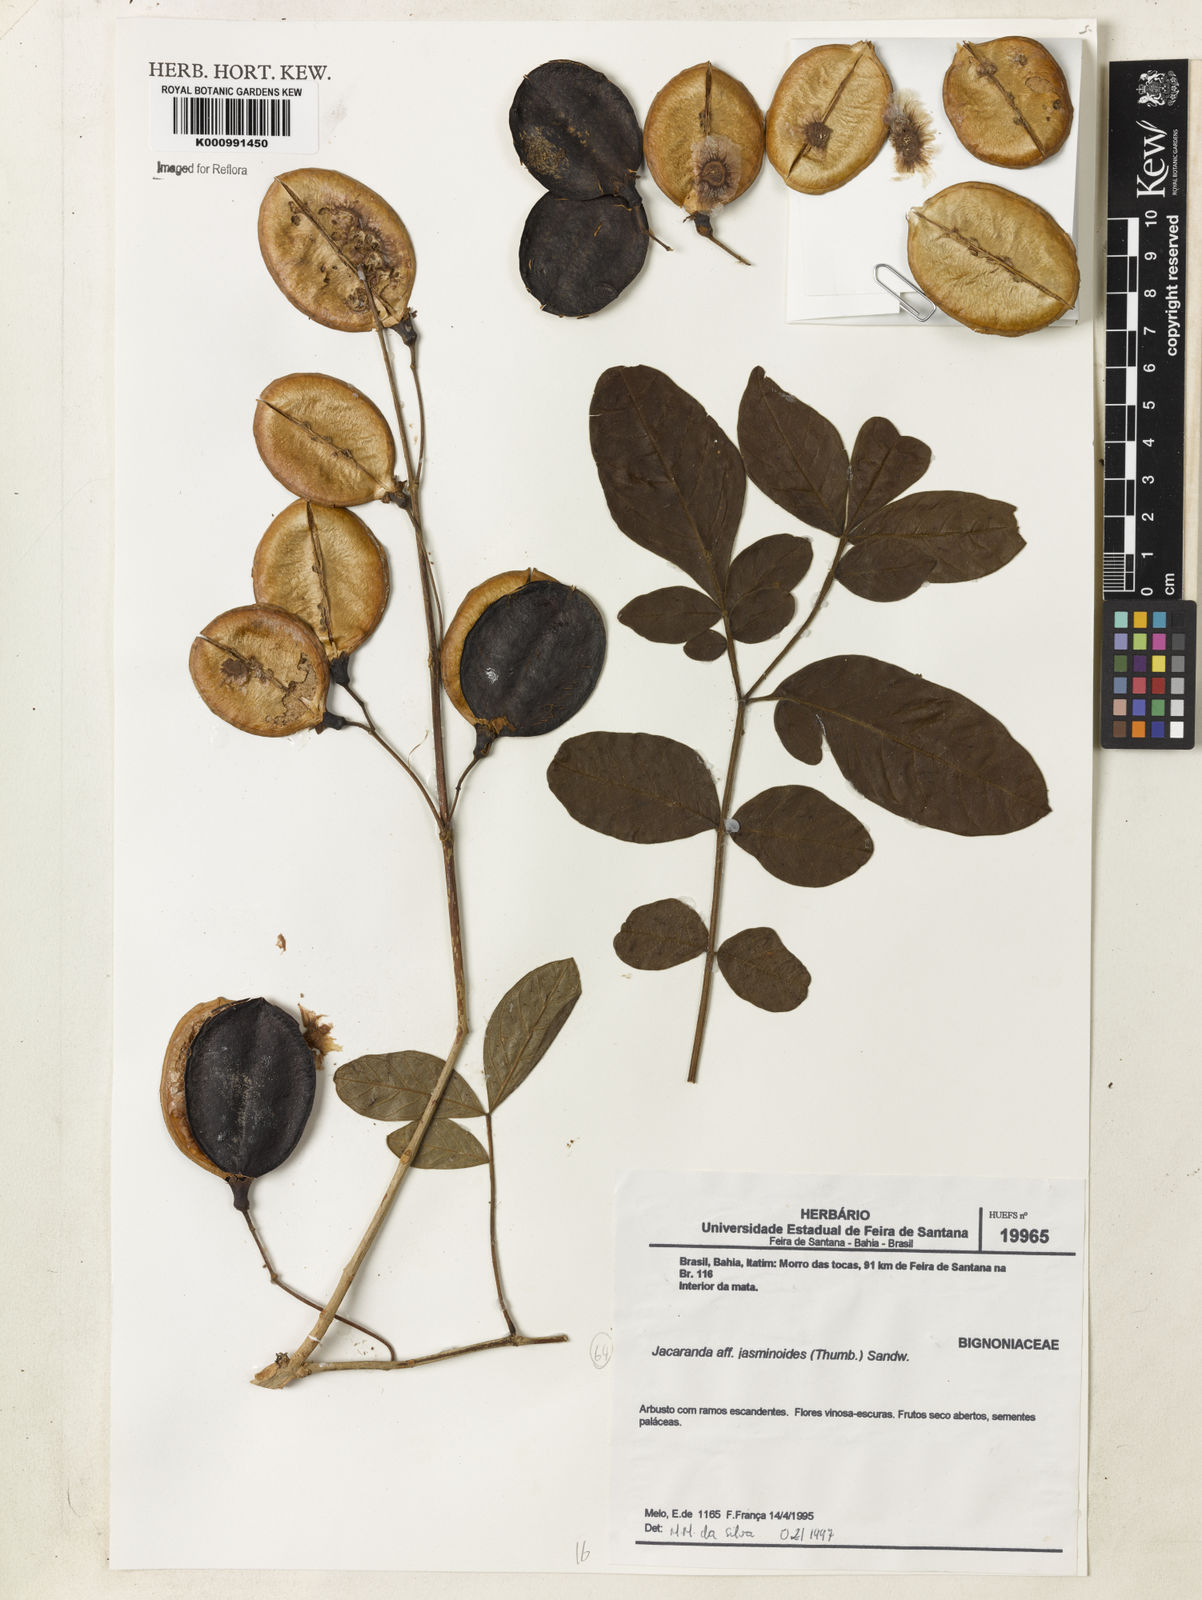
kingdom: Plantae
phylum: Tracheophyta
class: Magnoliopsida
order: Lamiales
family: Bignoniaceae
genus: Jacaranda
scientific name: Jacaranda jasminoides
